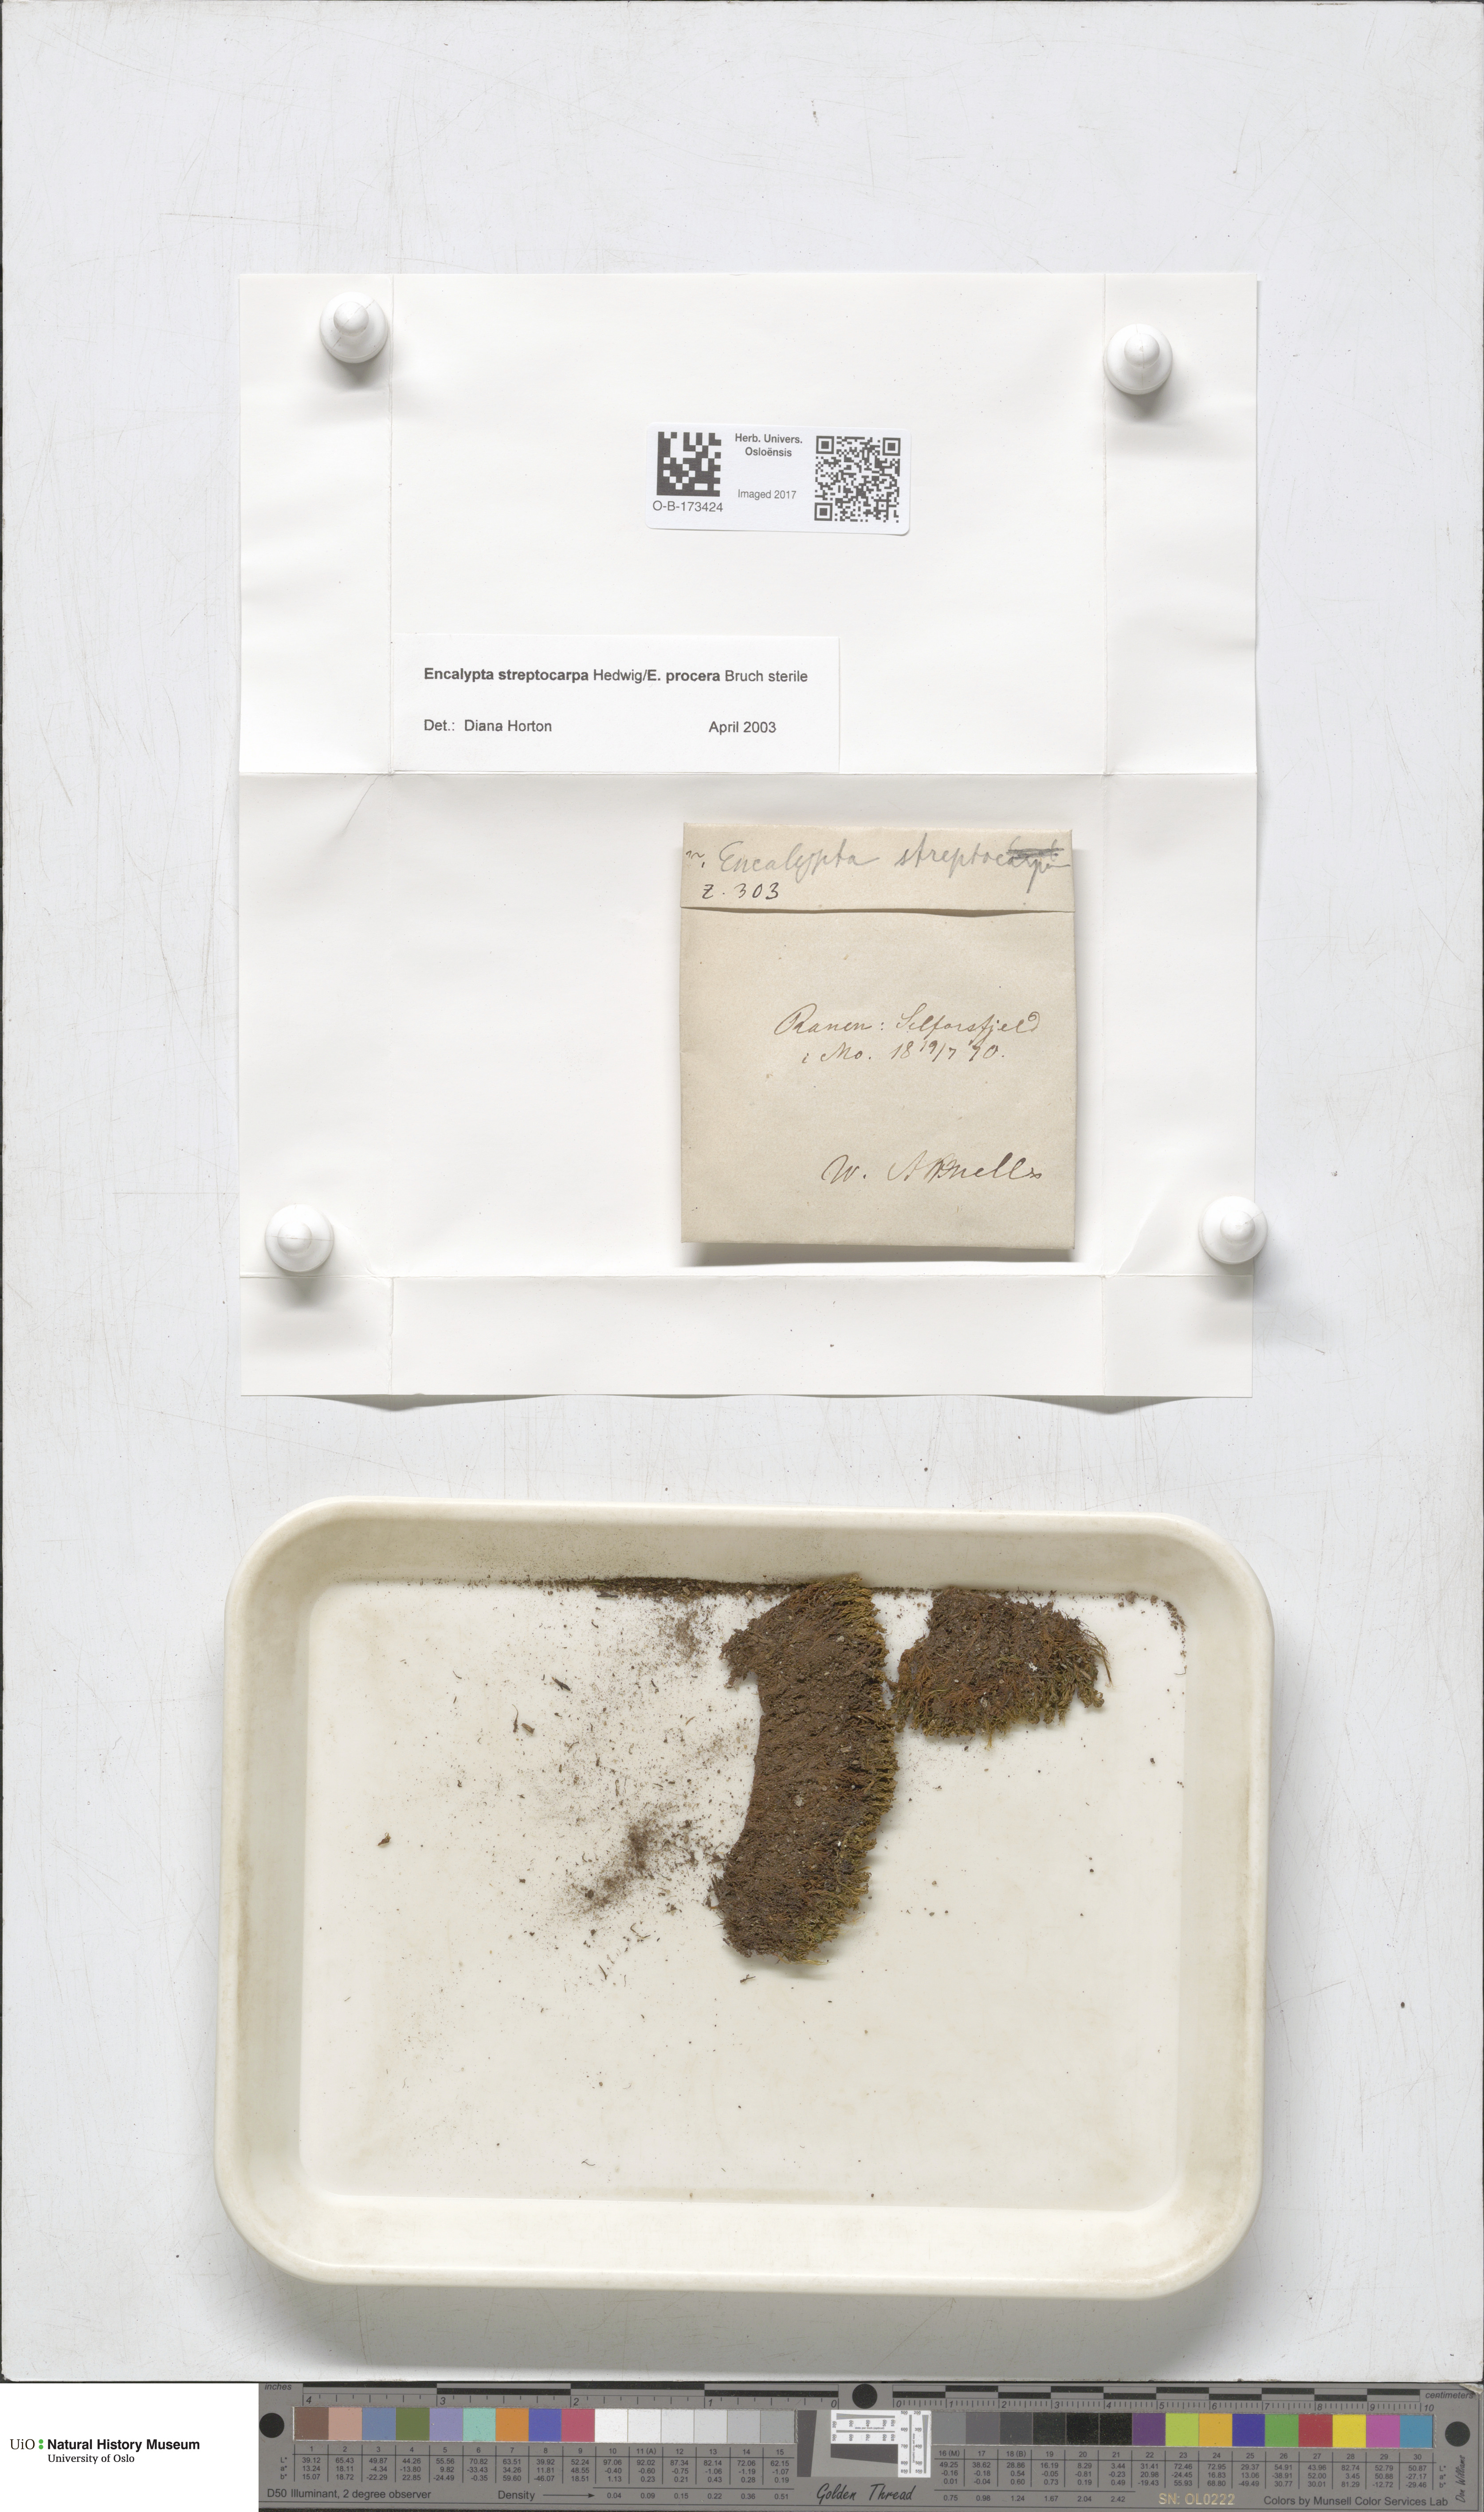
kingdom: Plantae
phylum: Bryophyta
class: Bryopsida
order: Encalyptales
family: Encalyptaceae
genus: Encalypta
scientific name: Encalypta
